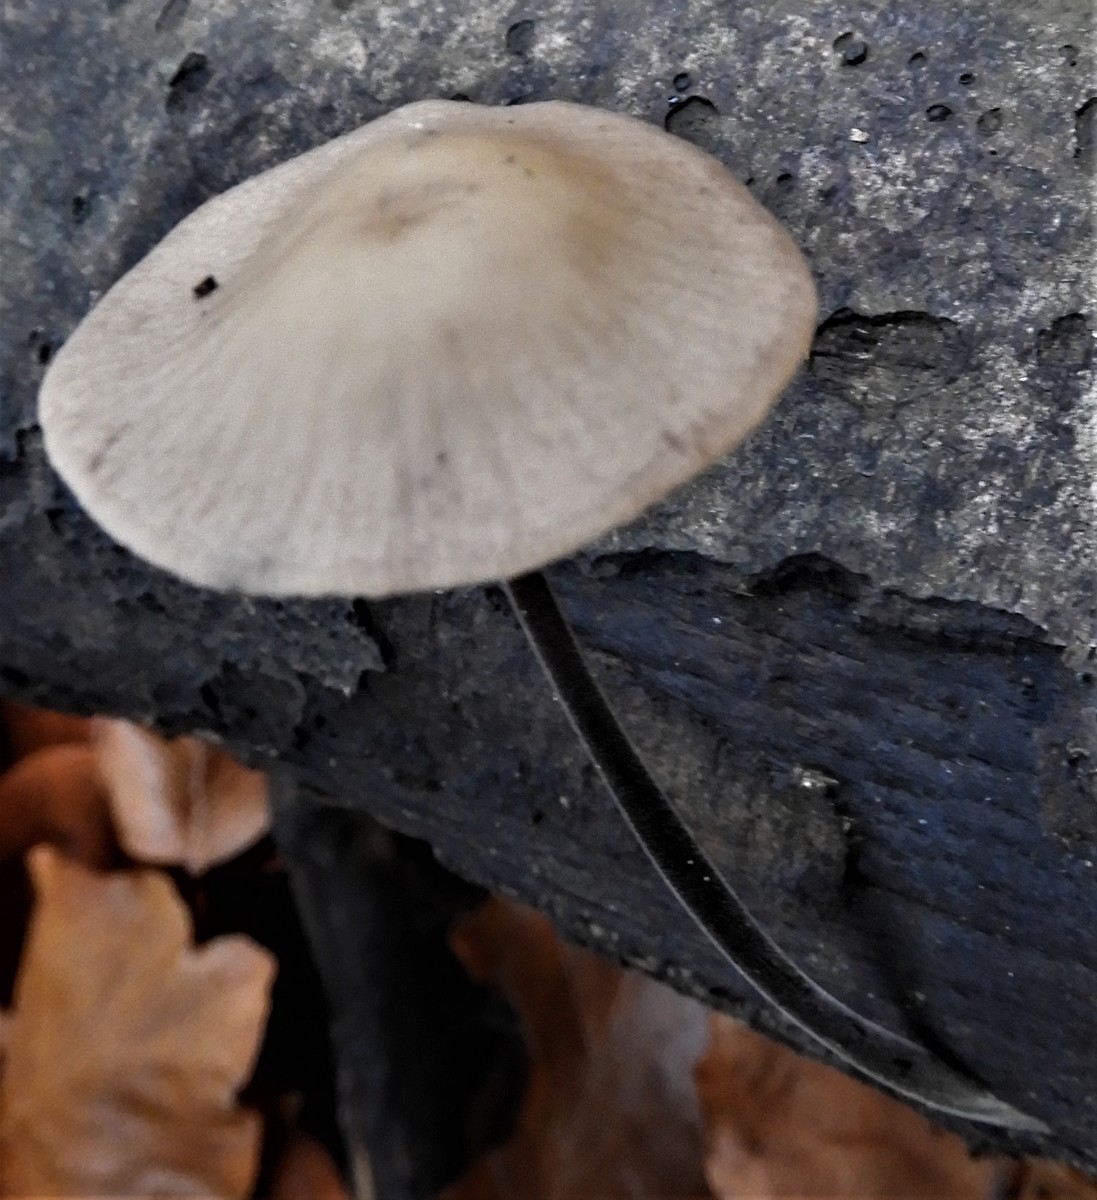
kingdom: Fungi
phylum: Basidiomycota
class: Agaricomycetes
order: Agaricales
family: Omphalotaceae
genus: Mycetinis
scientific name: Mycetinis alliaceus
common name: stor løghat
